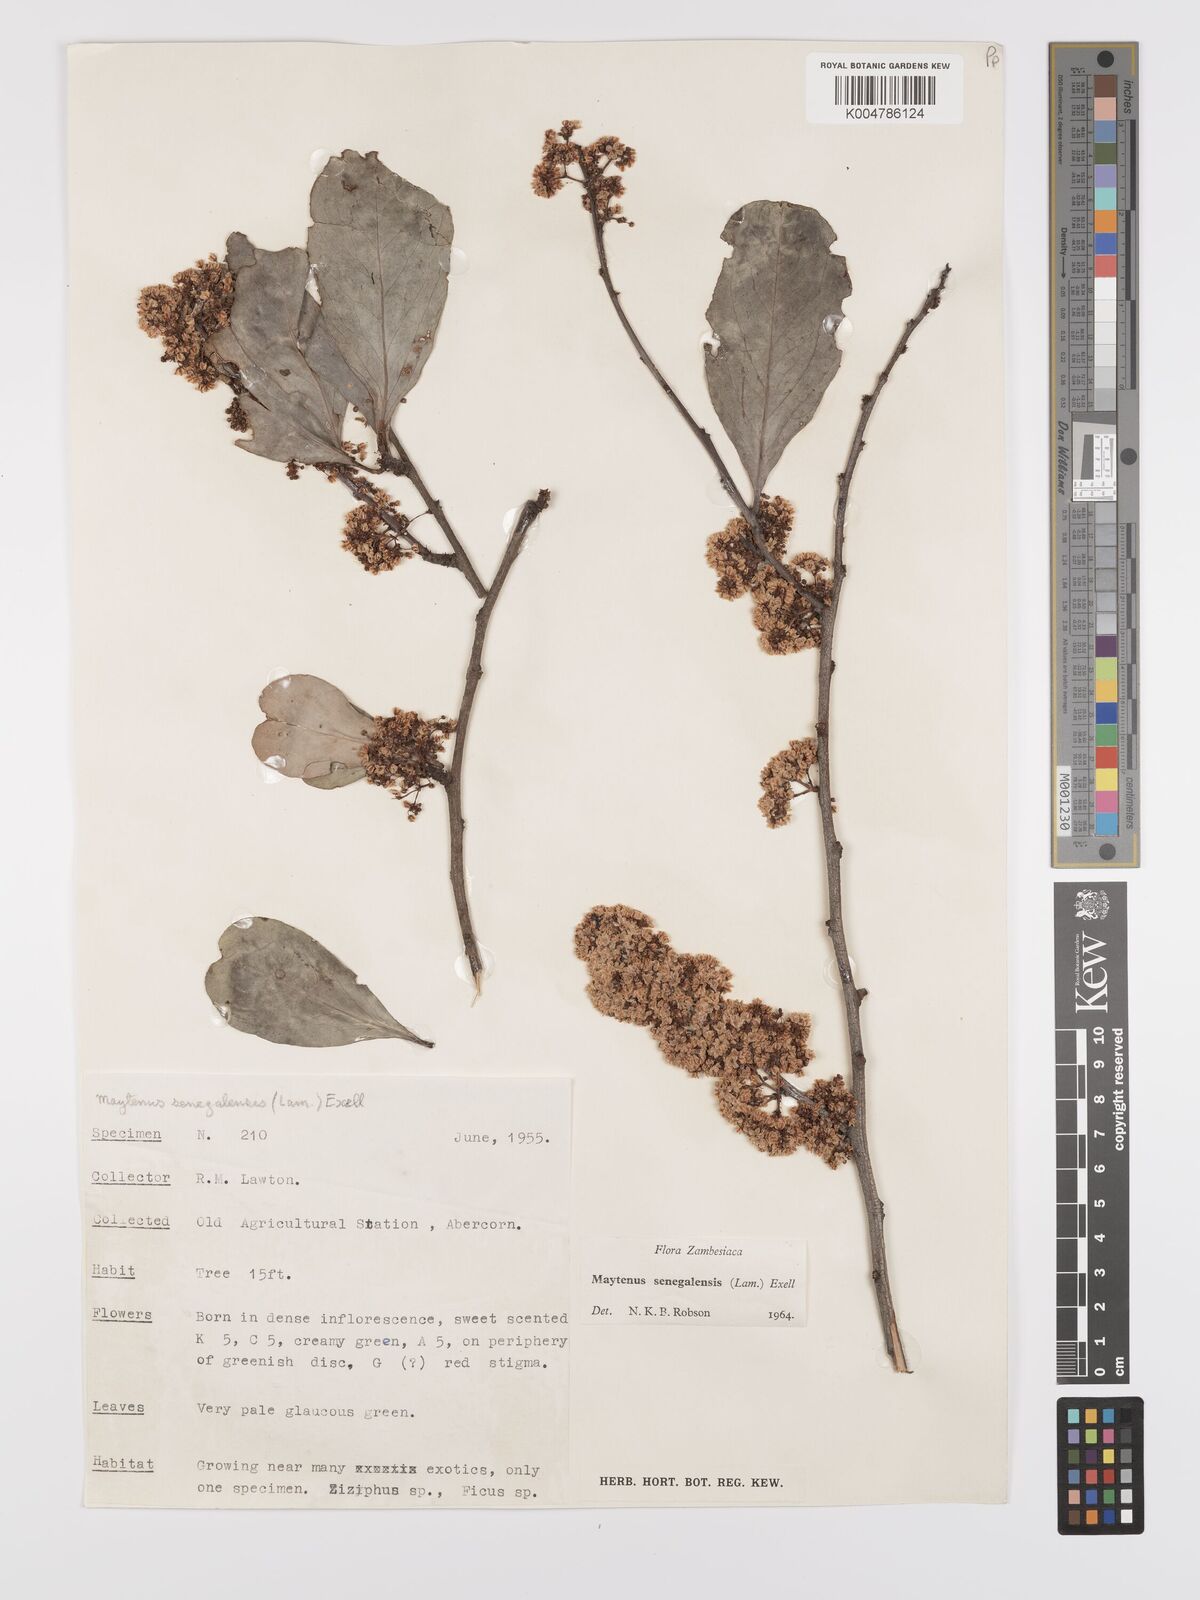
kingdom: Plantae
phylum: Tracheophyta
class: Magnoliopsida
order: Celastrales
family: Celastraceae
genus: Gymnosporia
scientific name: Gymnosporia senegalensis
